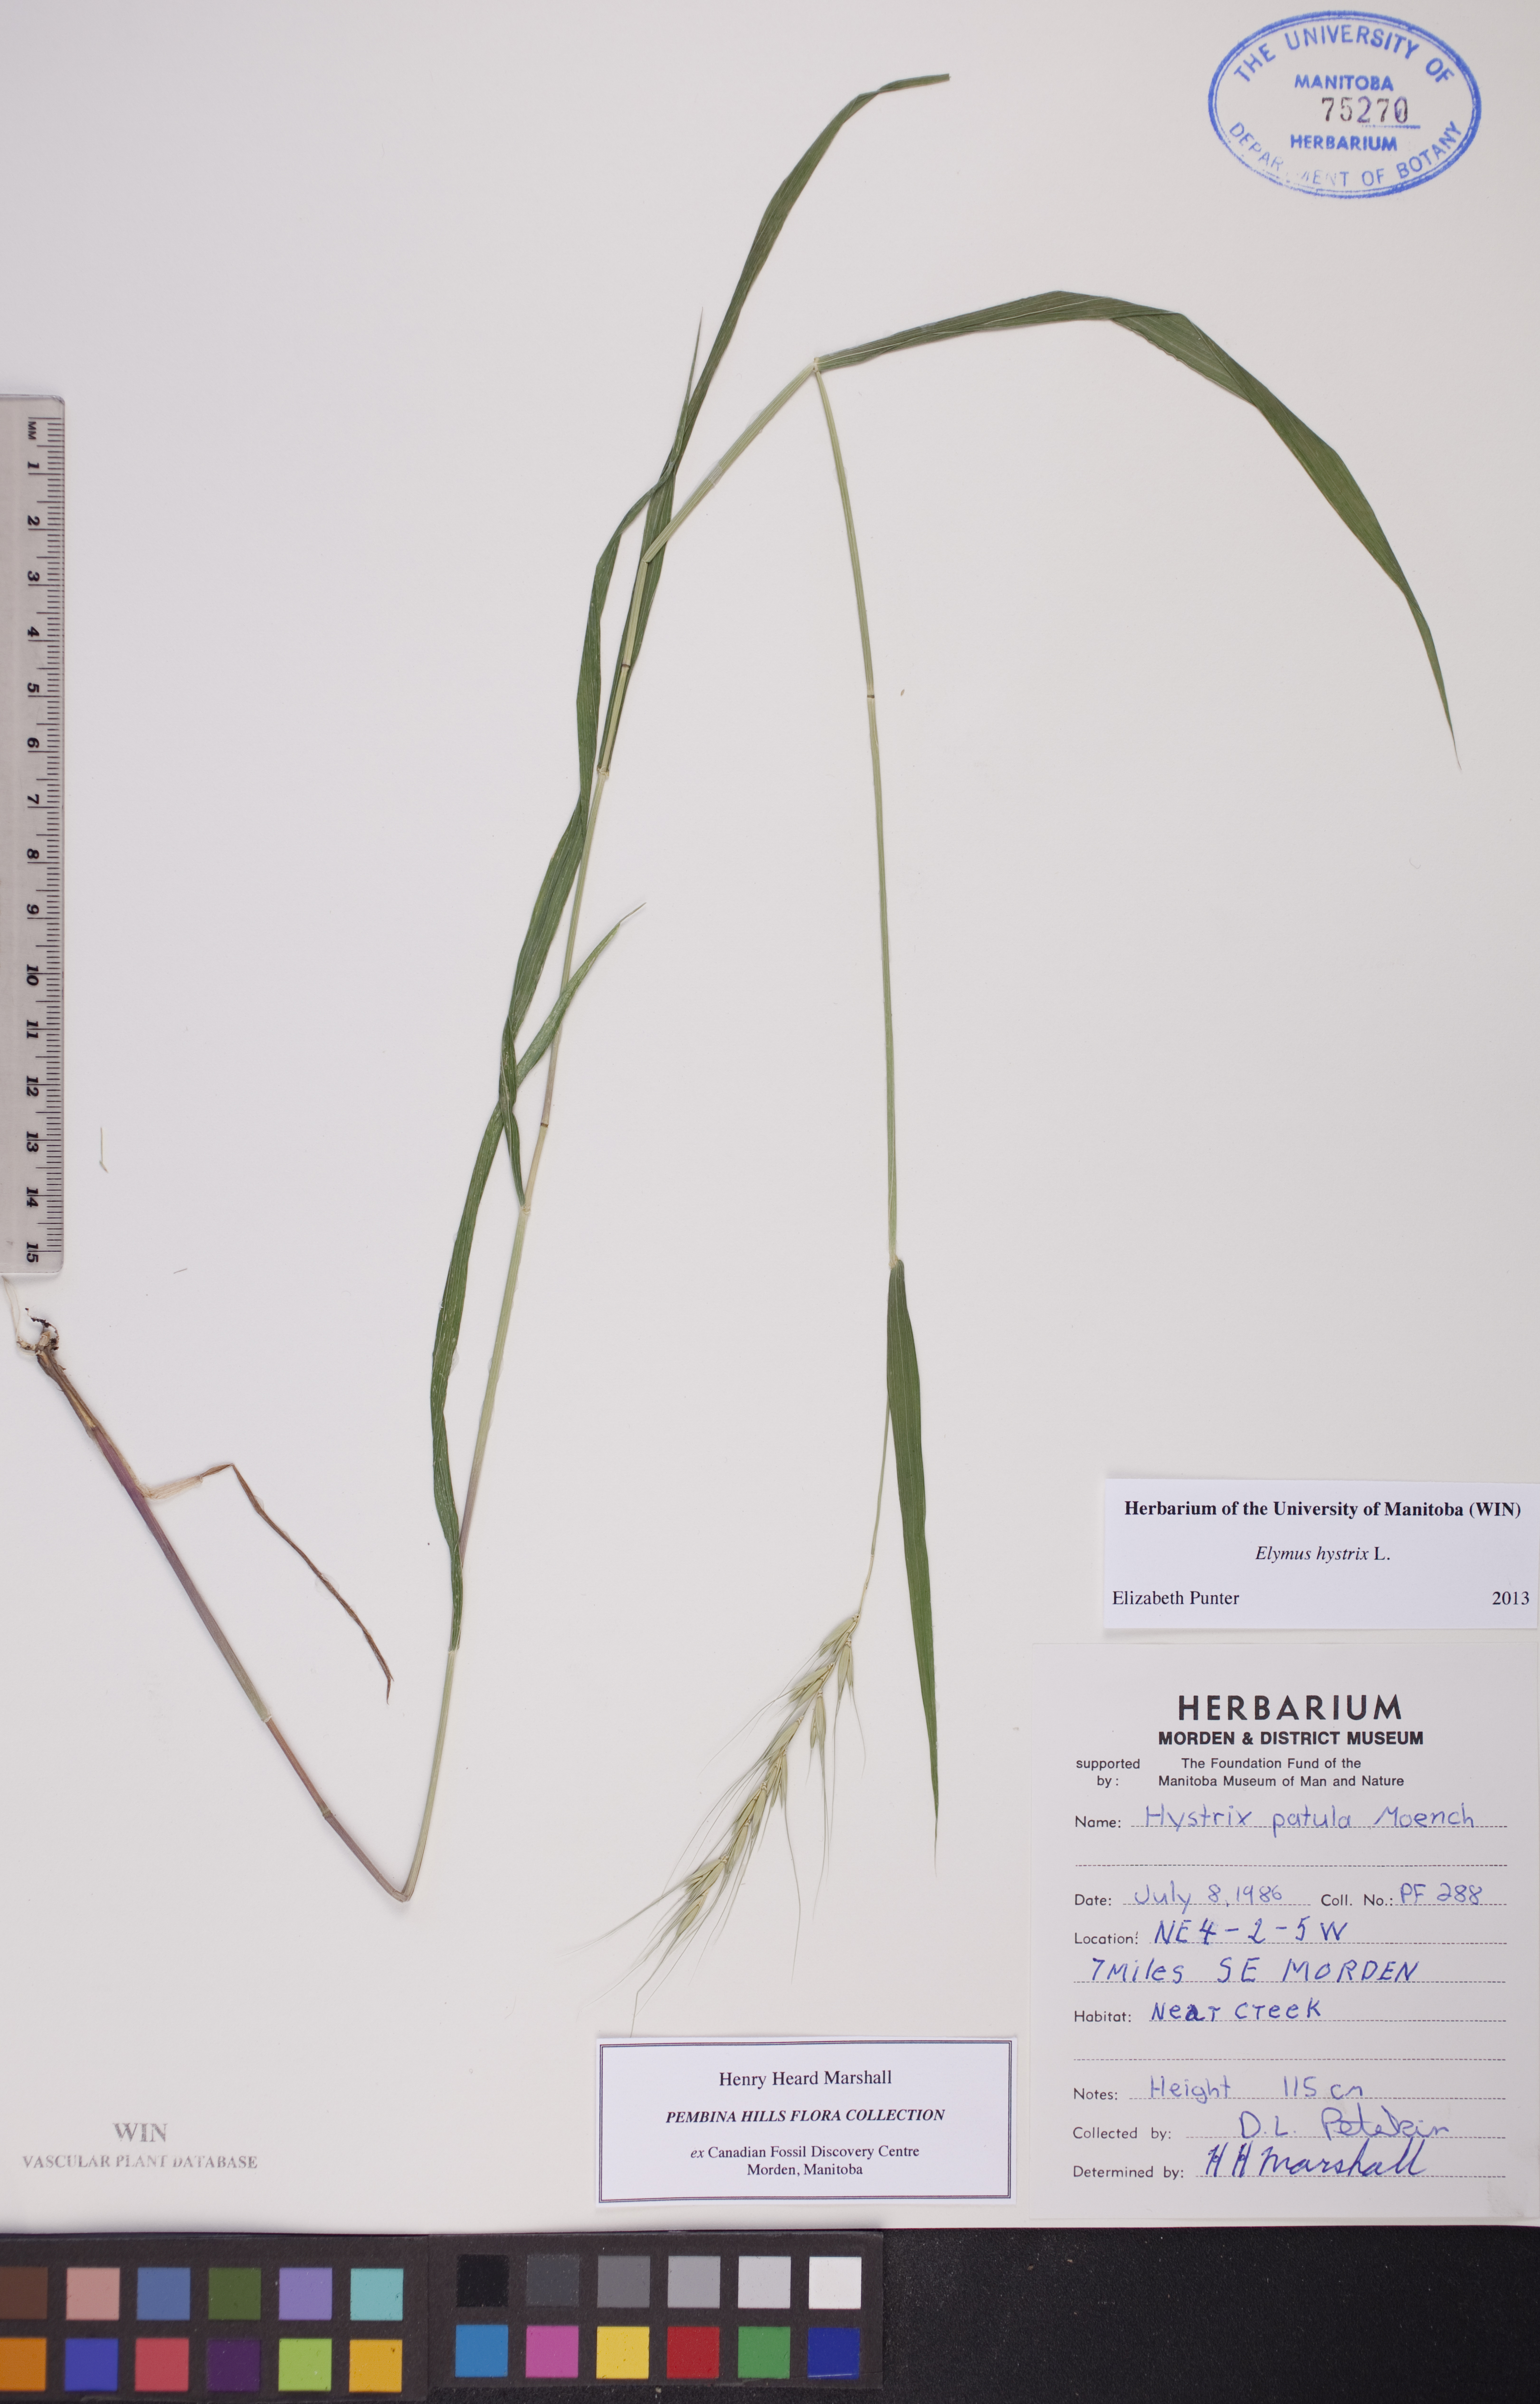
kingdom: Plantae
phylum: Tracheophyta
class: Liliopsida
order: Poales
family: Poaceae
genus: Elymus
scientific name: Elymus hystrix
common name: Bottlebrush grass
